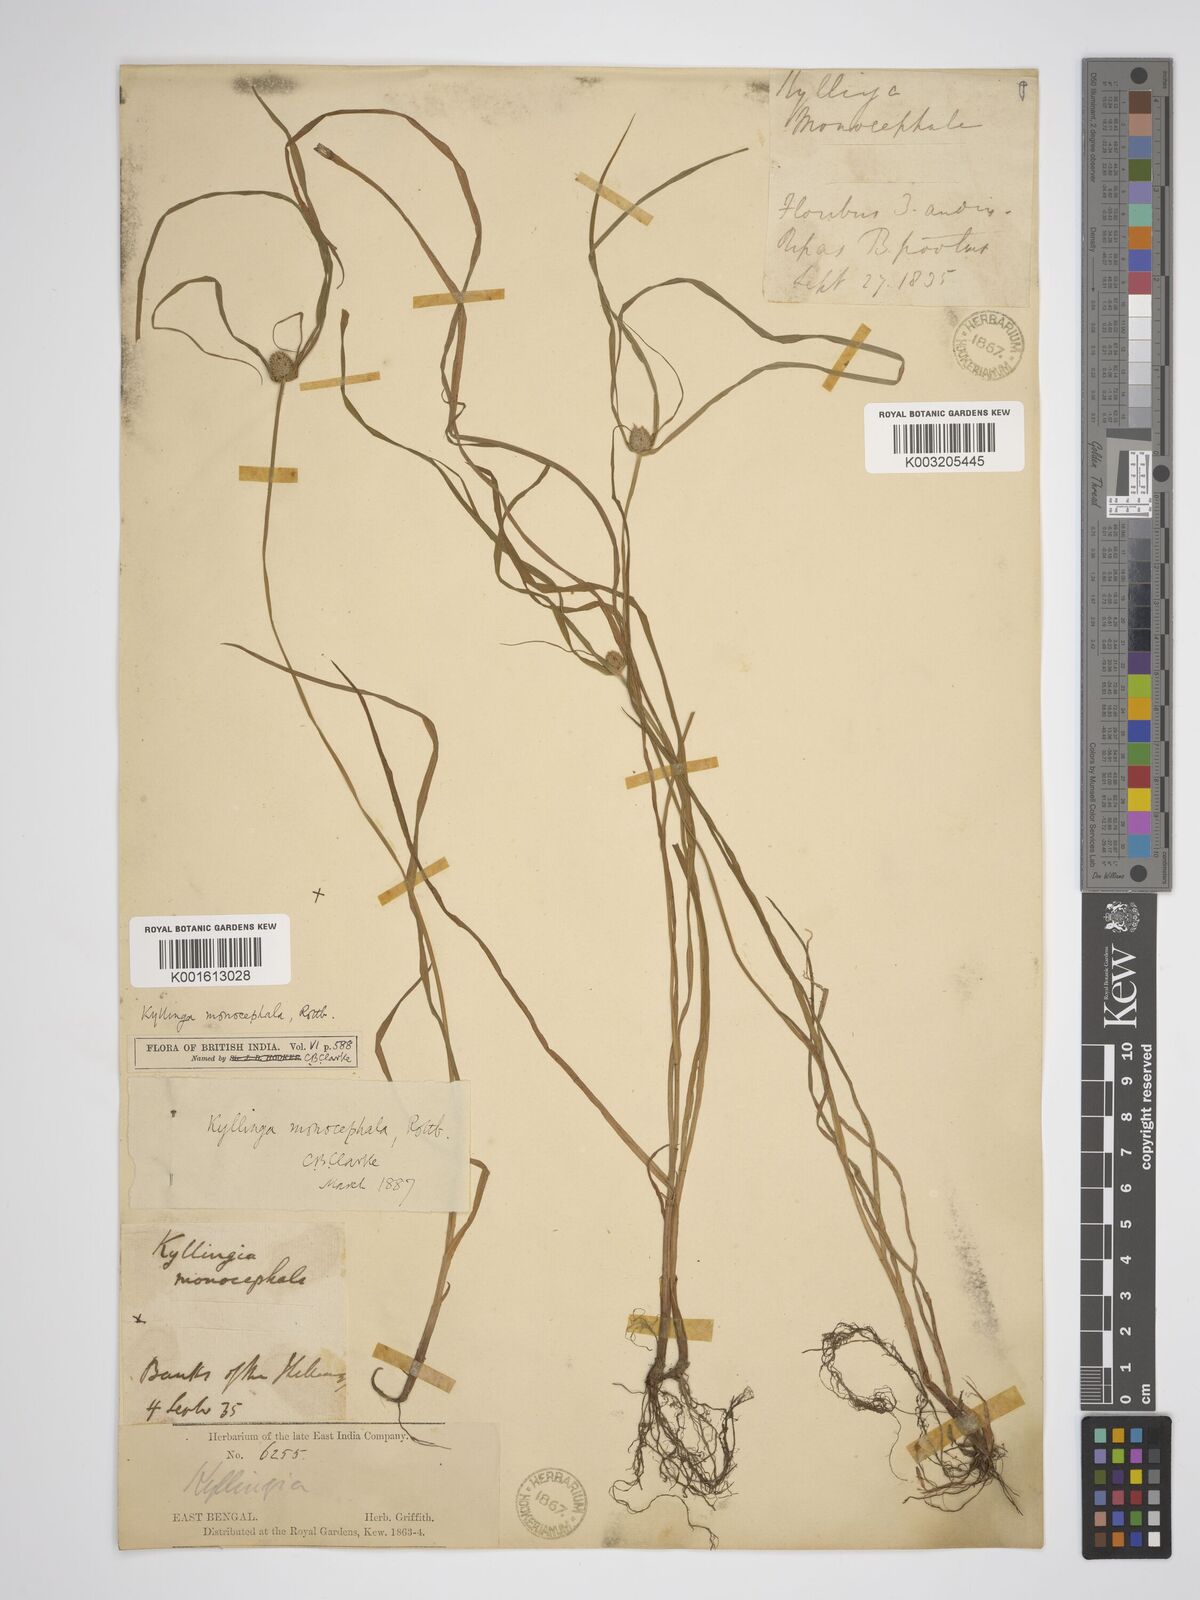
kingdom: Plantae
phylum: Tracheophyta
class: Liliopsida
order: Poales
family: Cyperaceae
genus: Rhynchospora
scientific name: Rhynchospora colorata
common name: Star sedge
